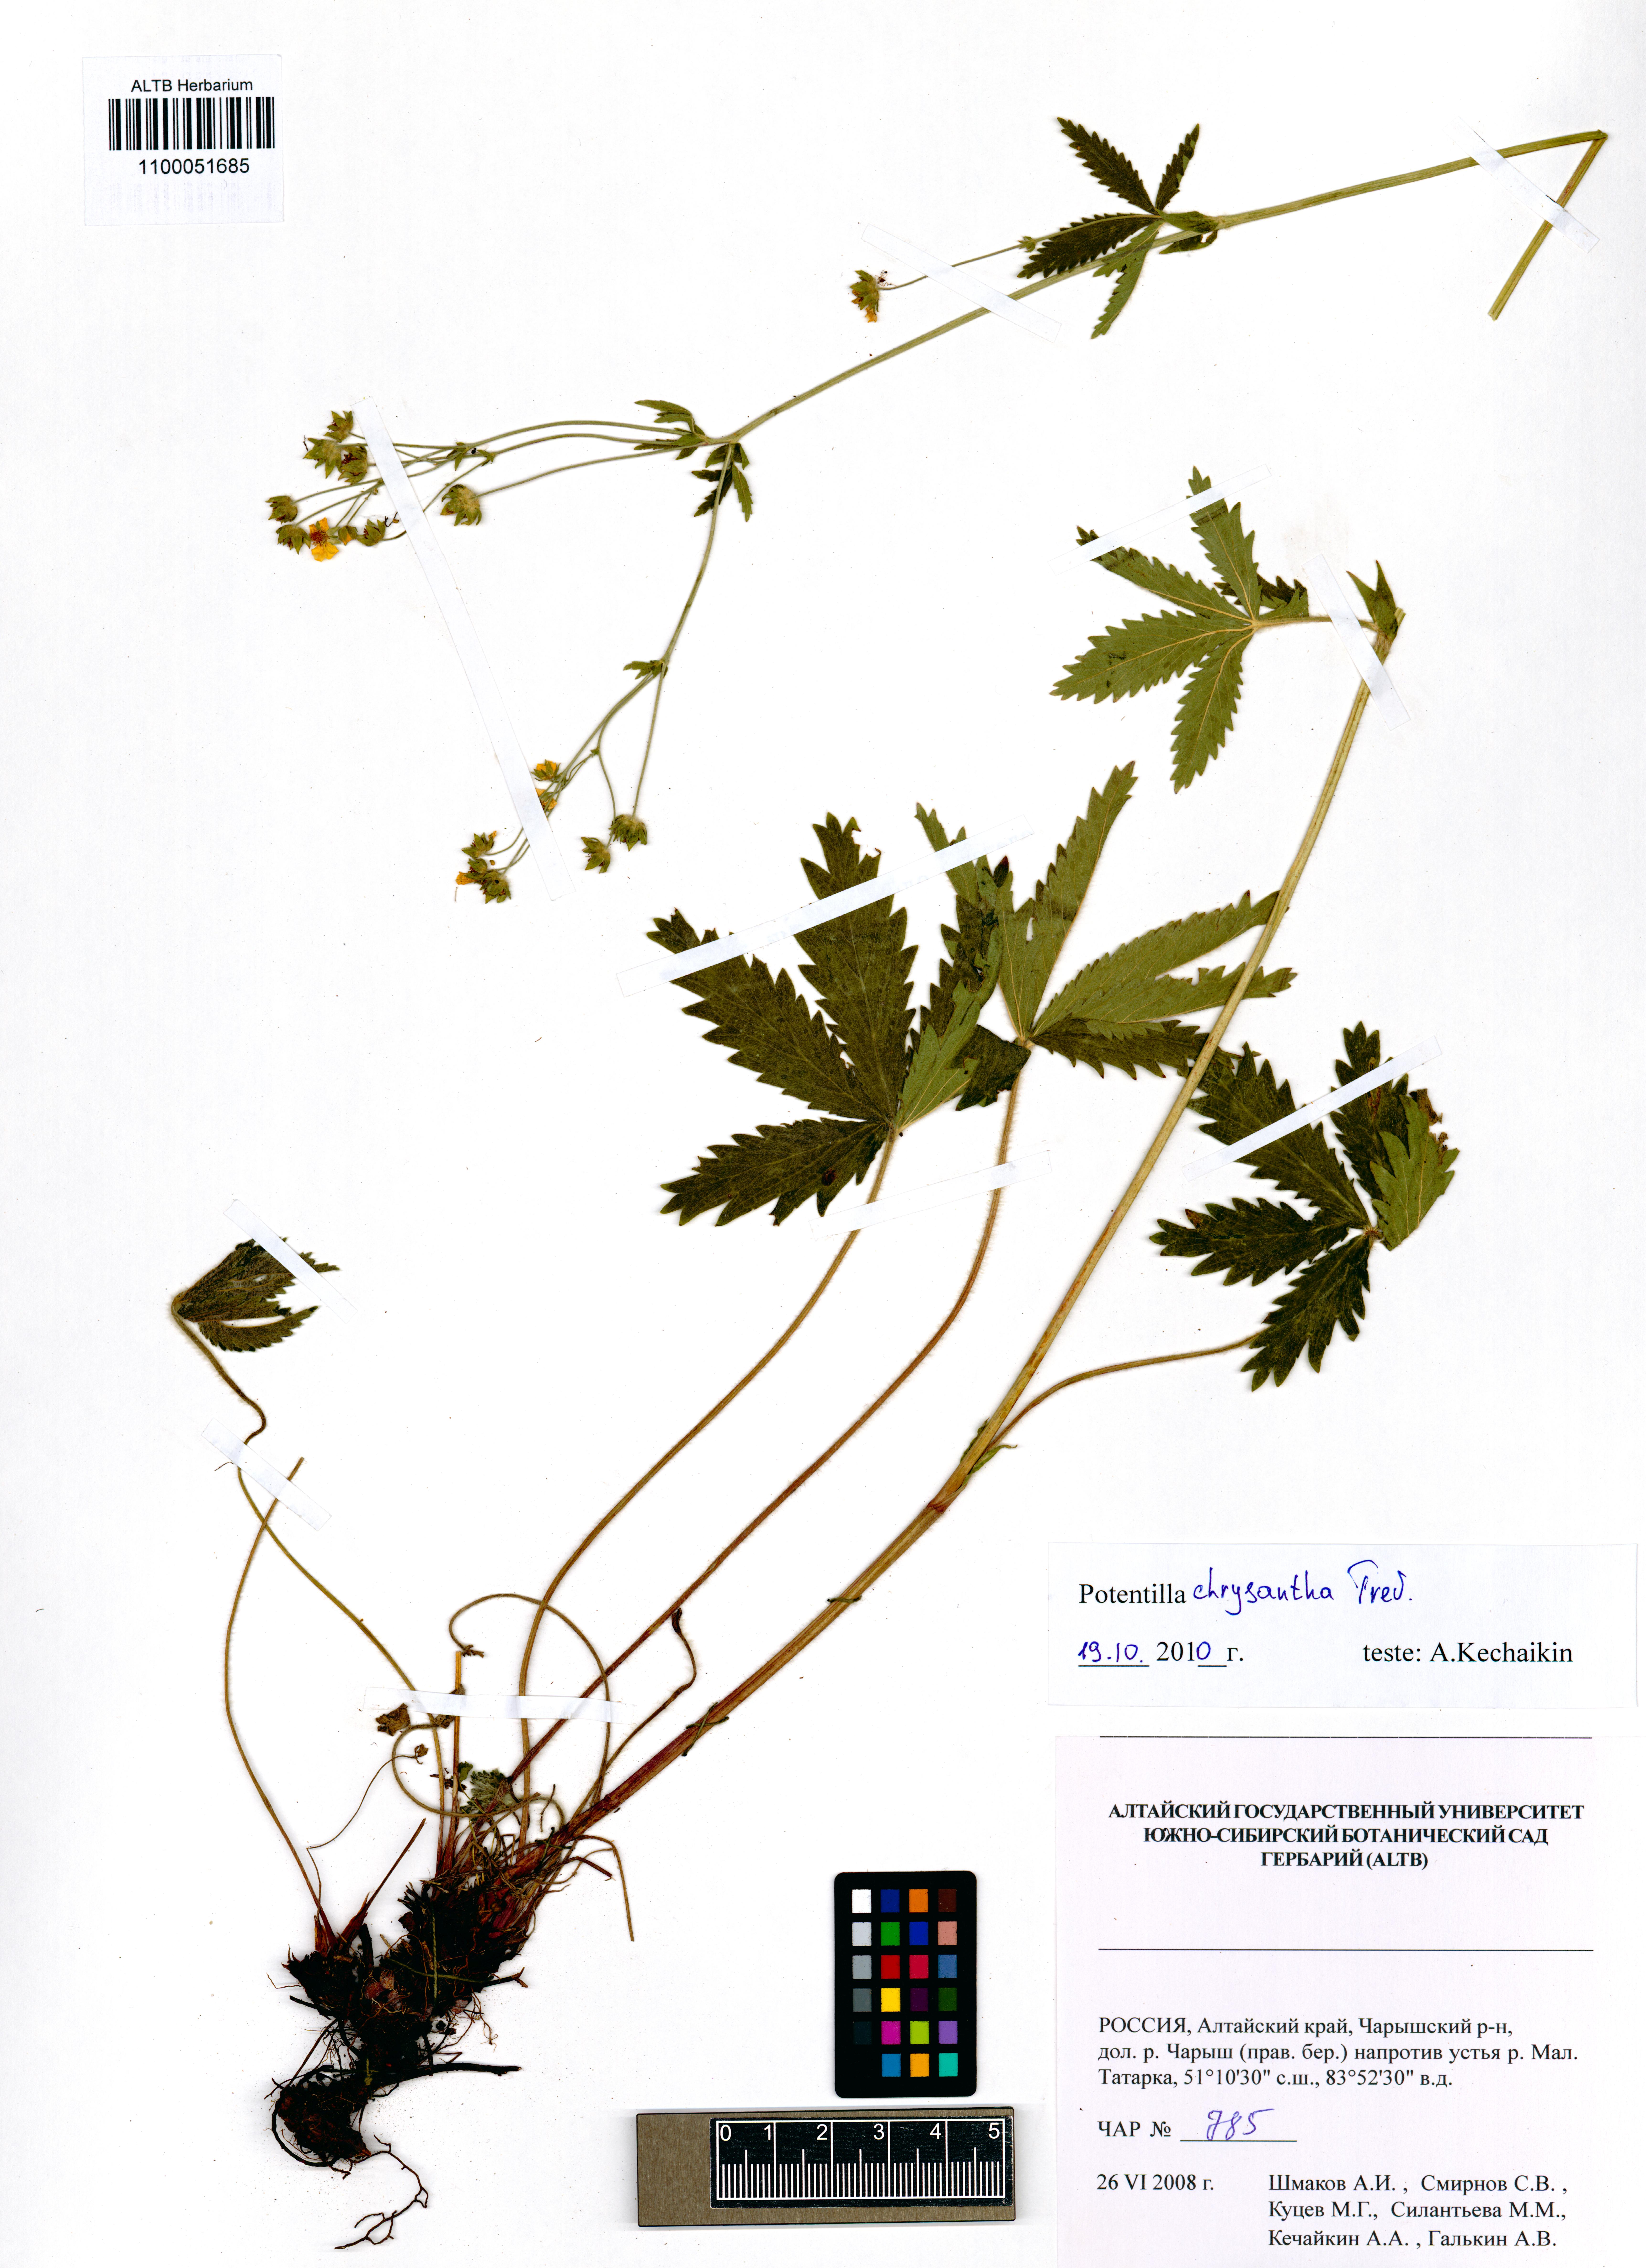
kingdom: Plantae
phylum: Tracheophyta
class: Magnoliopsida
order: Rosales
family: Rosaceae
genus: Potentilla
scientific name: Potentilla chrysantha
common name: Thuringian cinquefoil
